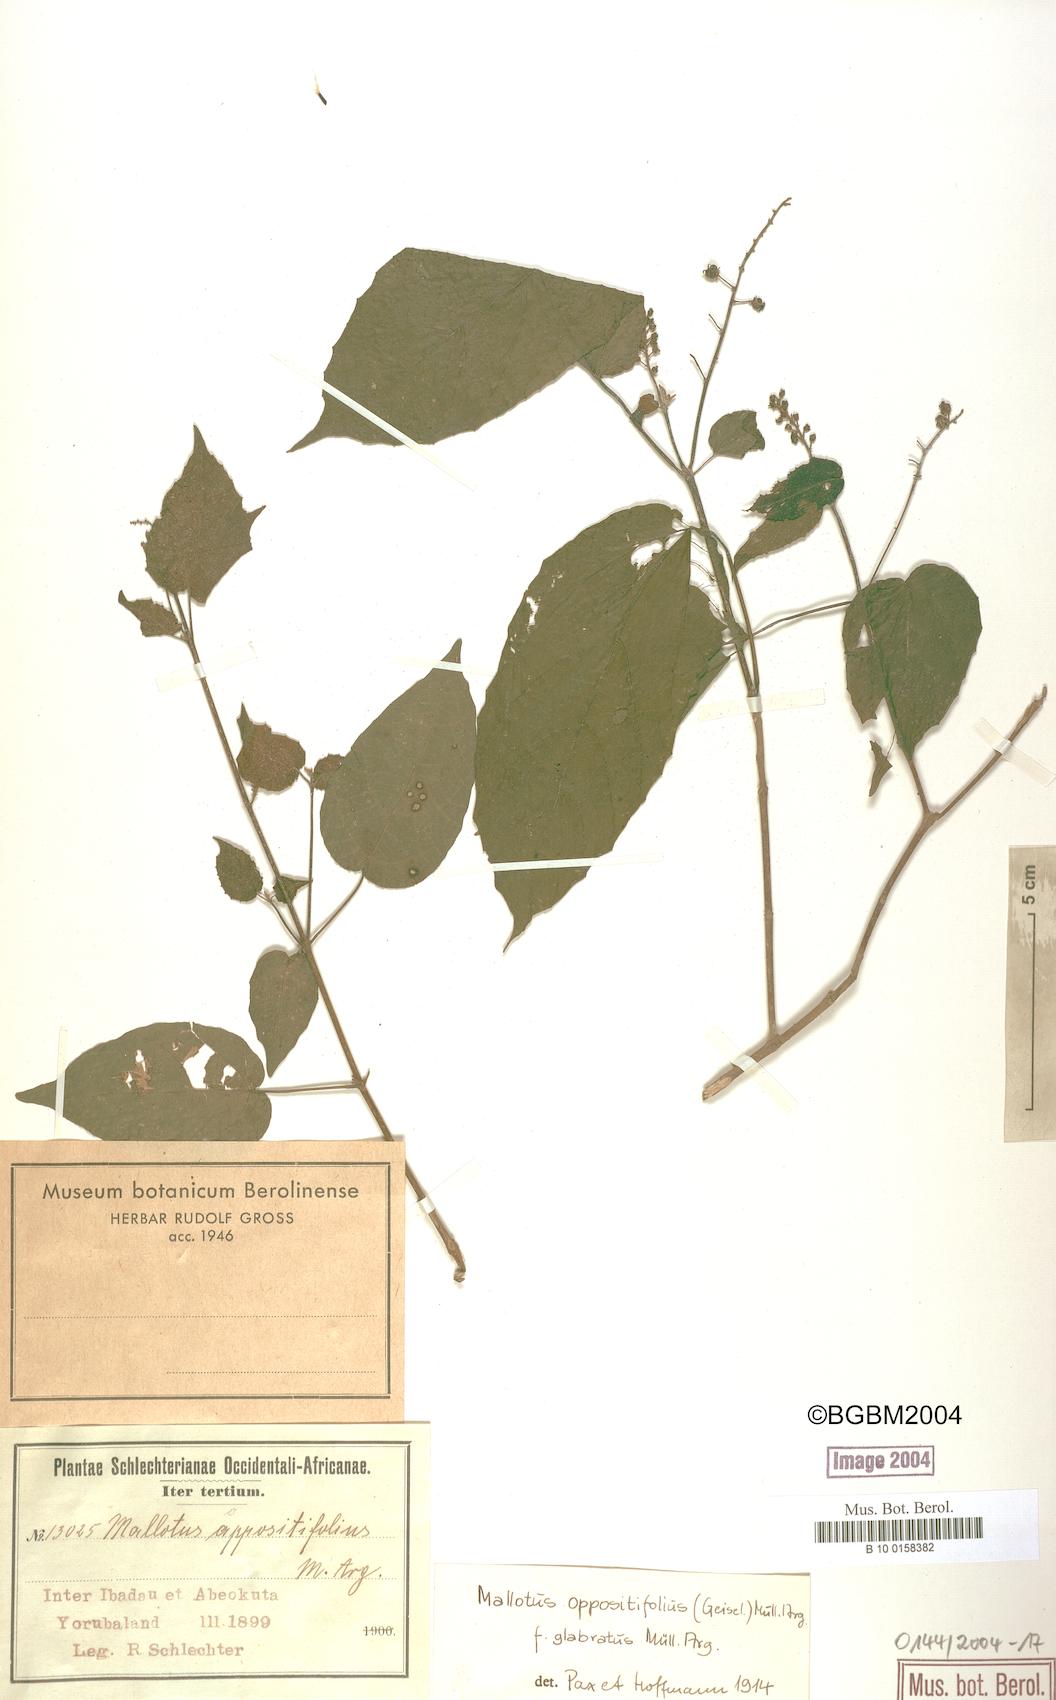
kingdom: Plantae
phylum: Tracheophyta
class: Magnoliopsida
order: Malpighiales
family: Euphorbiaceae
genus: Mallotus
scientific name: Mallotus oppositifolius
